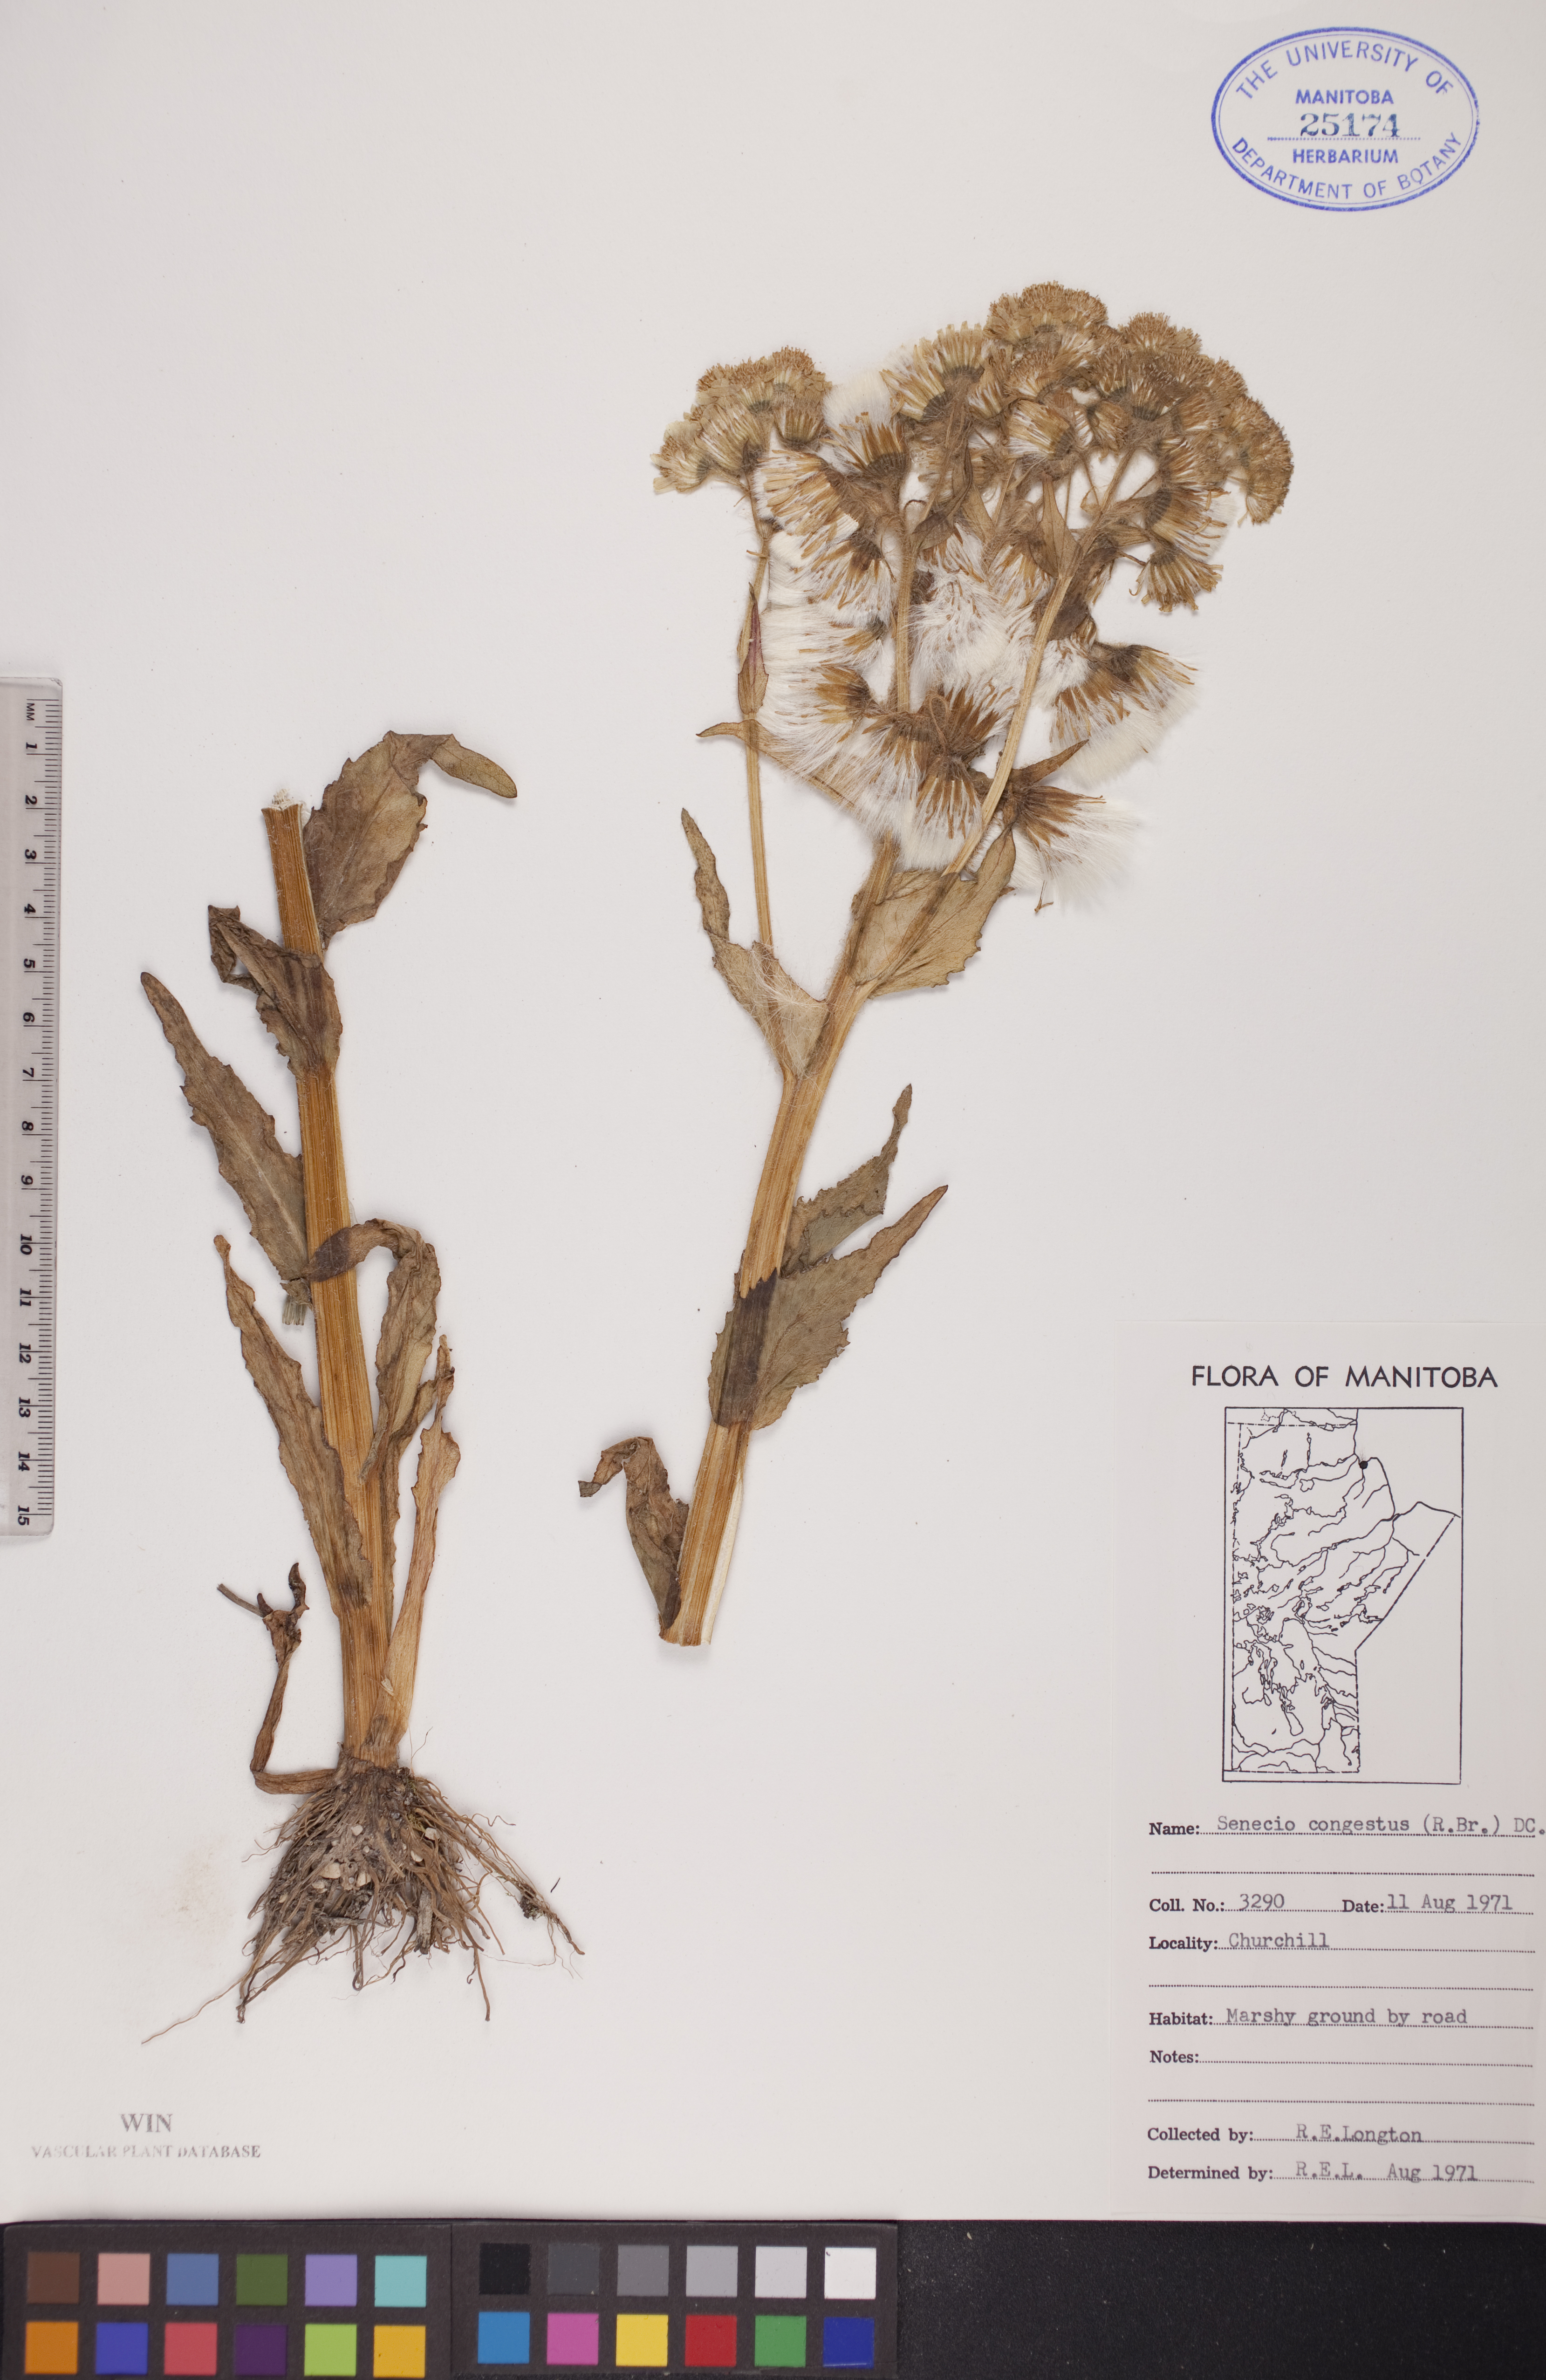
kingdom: Plantae
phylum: Tracheophyta
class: Magnoliopsida
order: Asterales
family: Asteraceae
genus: Tephroseris
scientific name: Tephroseris palustris
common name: Marsh fleawort
